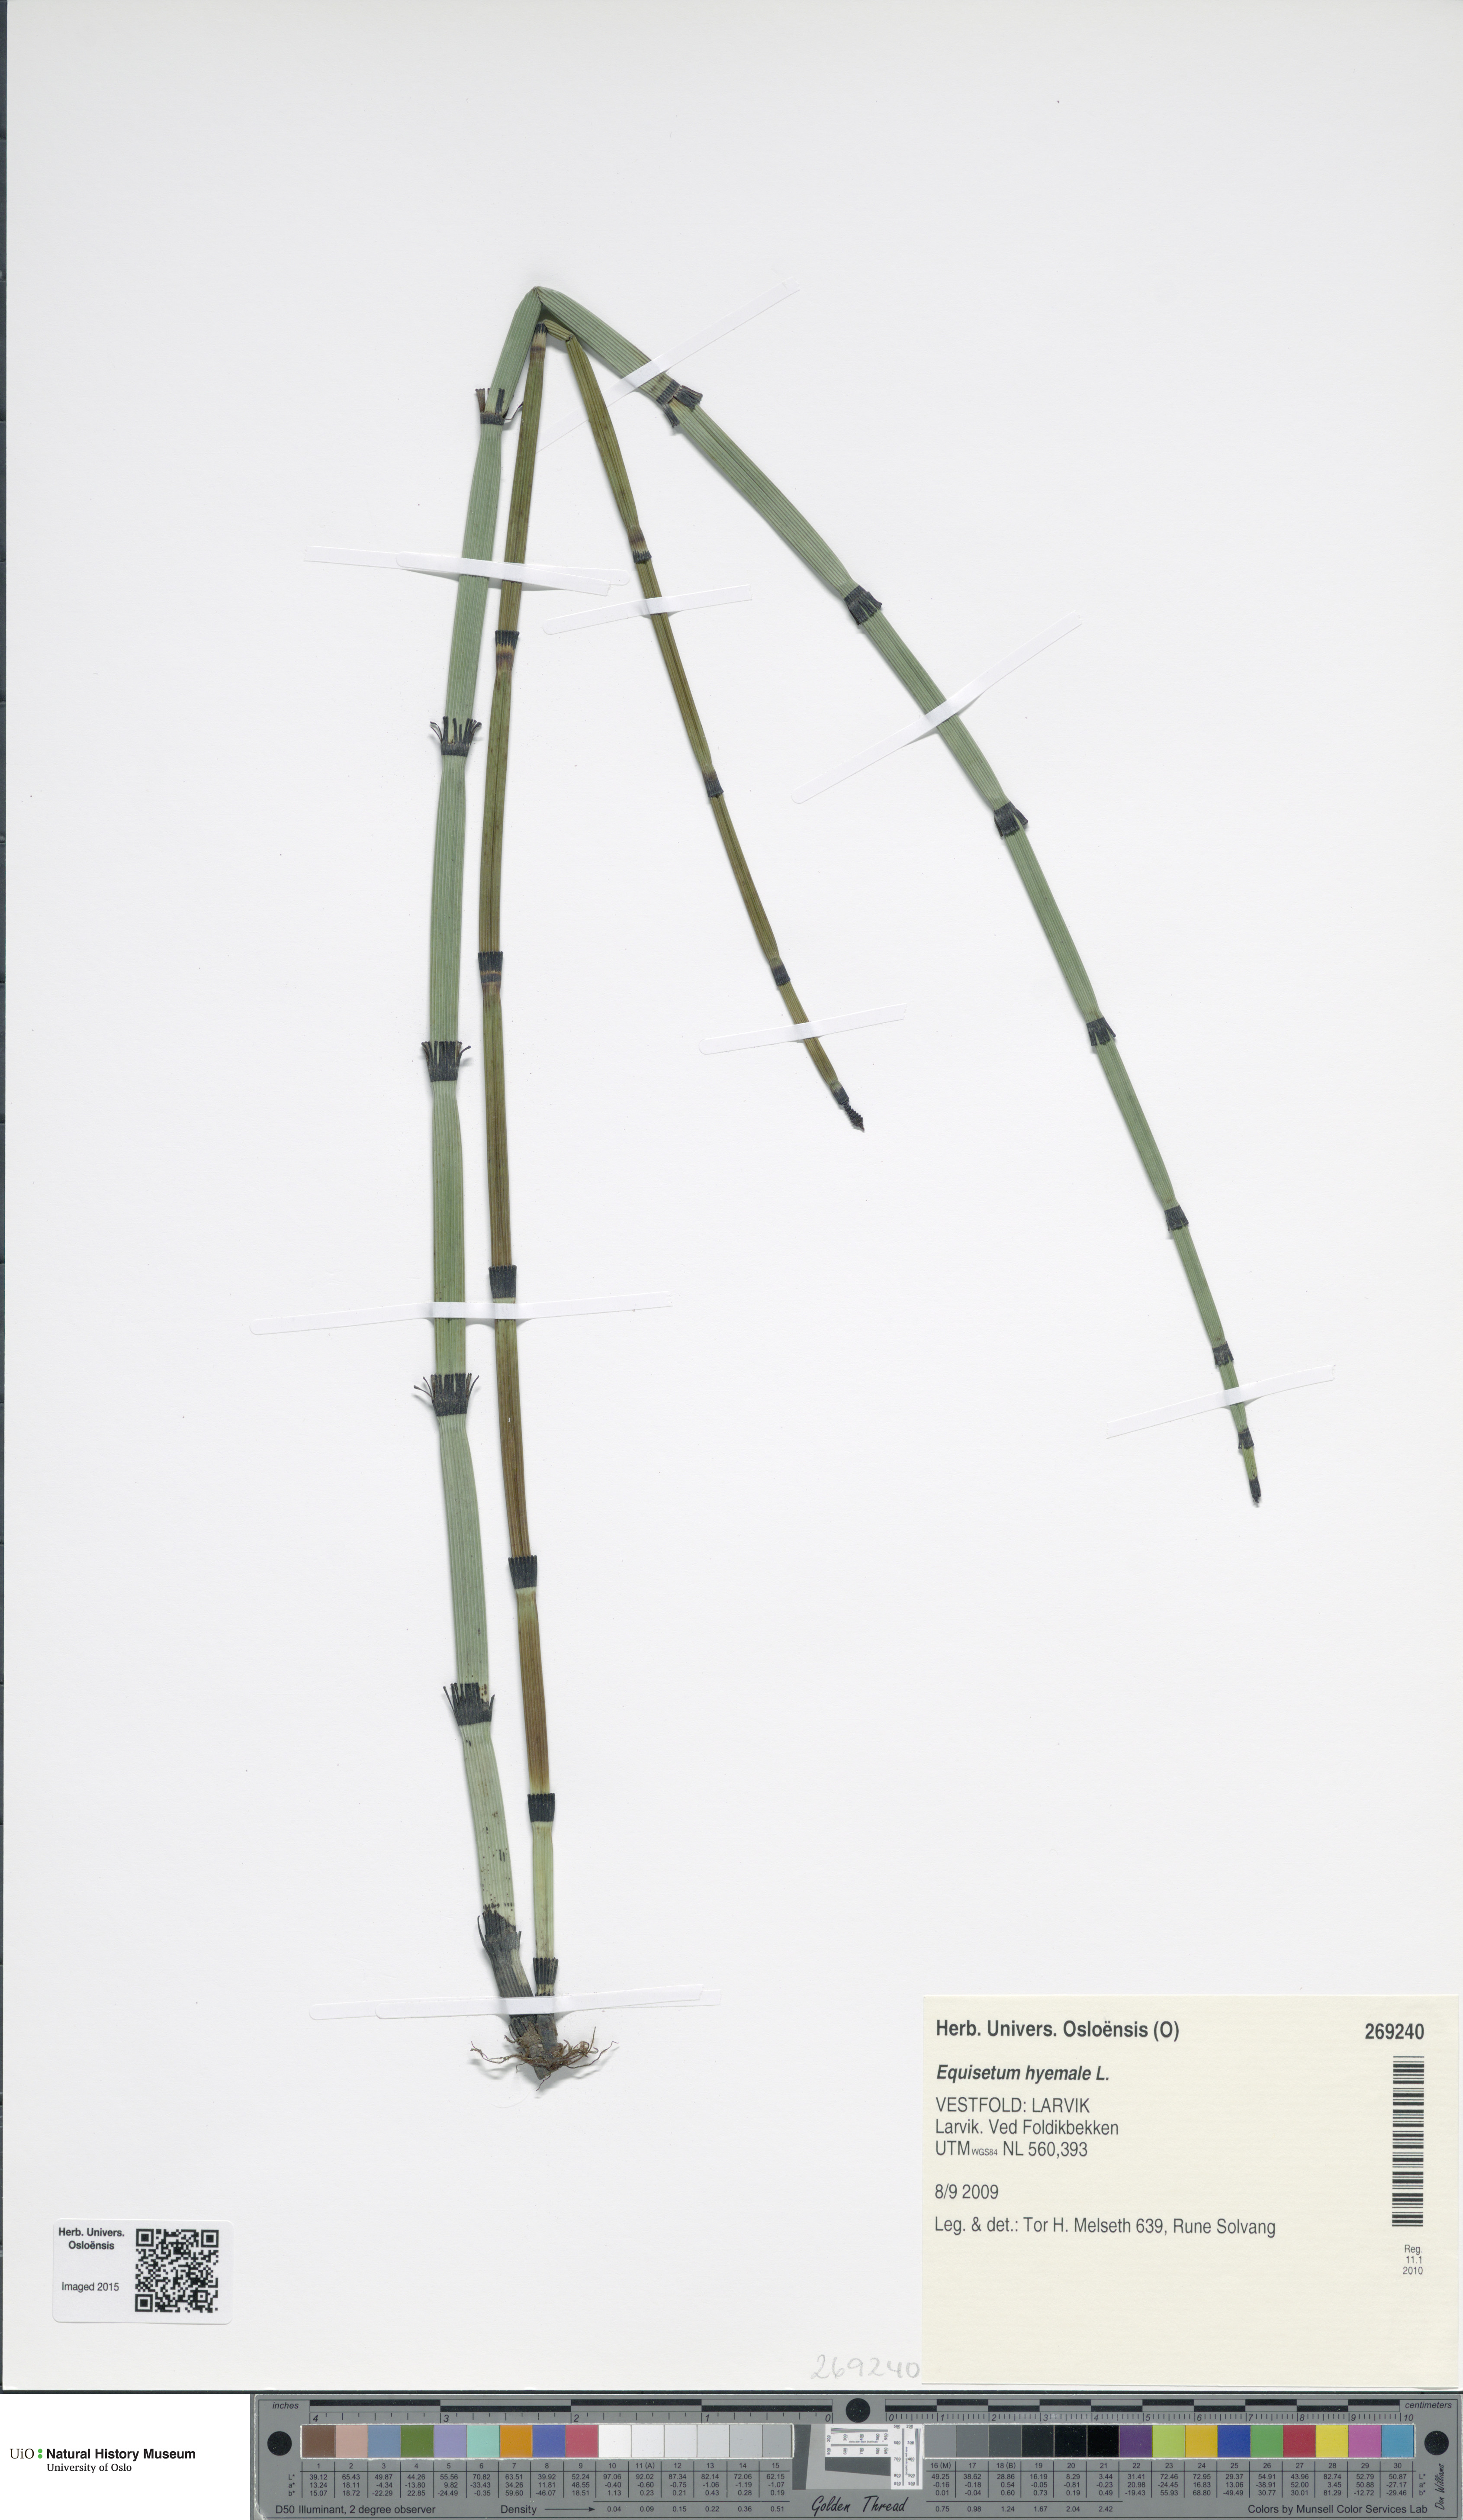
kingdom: Plantae
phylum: Tracheophyta
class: Polypodiopsida
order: Equisetales
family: Equisetaceae
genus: Equisetum
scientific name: Equisetum hyemale
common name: Rough horsetail
